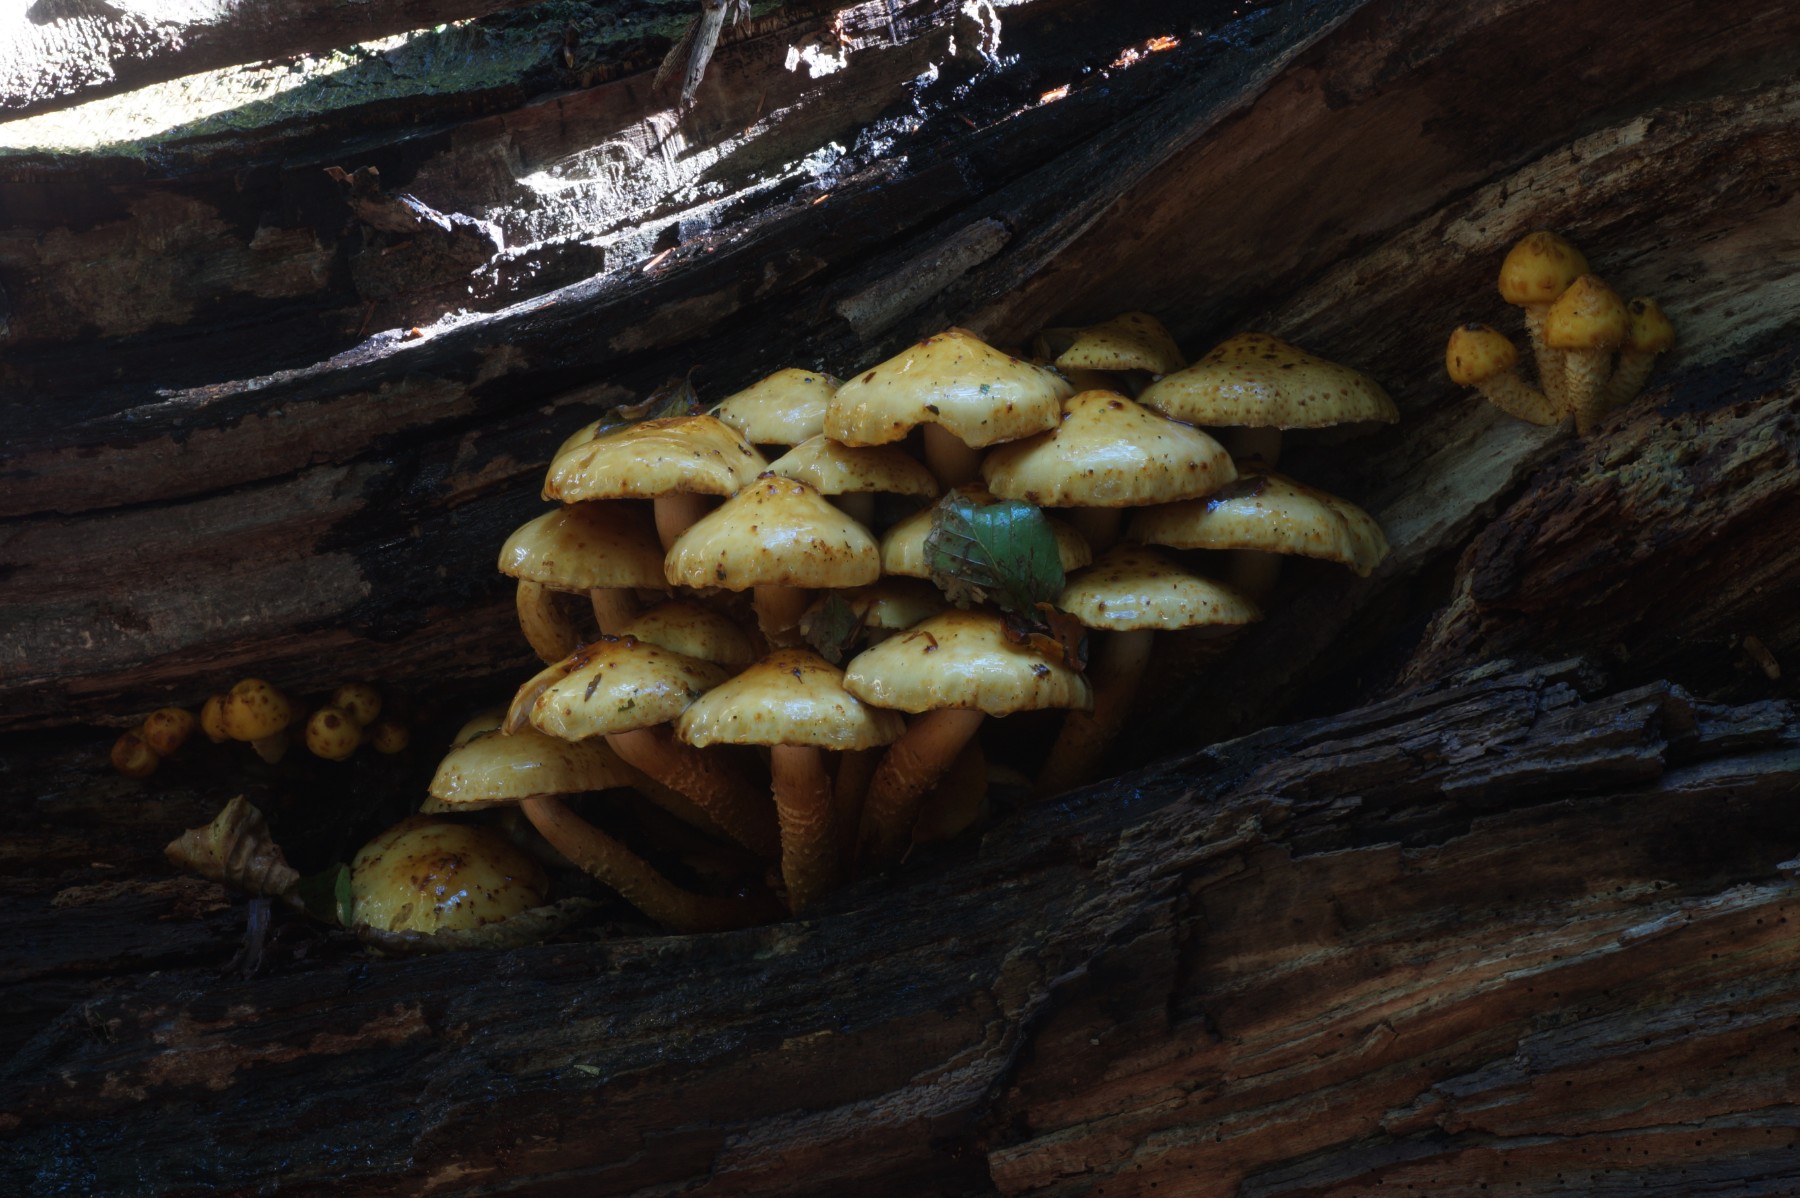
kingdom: Fungi
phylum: Basidiomycota
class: Agaricomycetes
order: Agaricales
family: Strophariaceae
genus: Pholiota
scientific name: Pholiota adiposa
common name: højtsiddende skælhat
